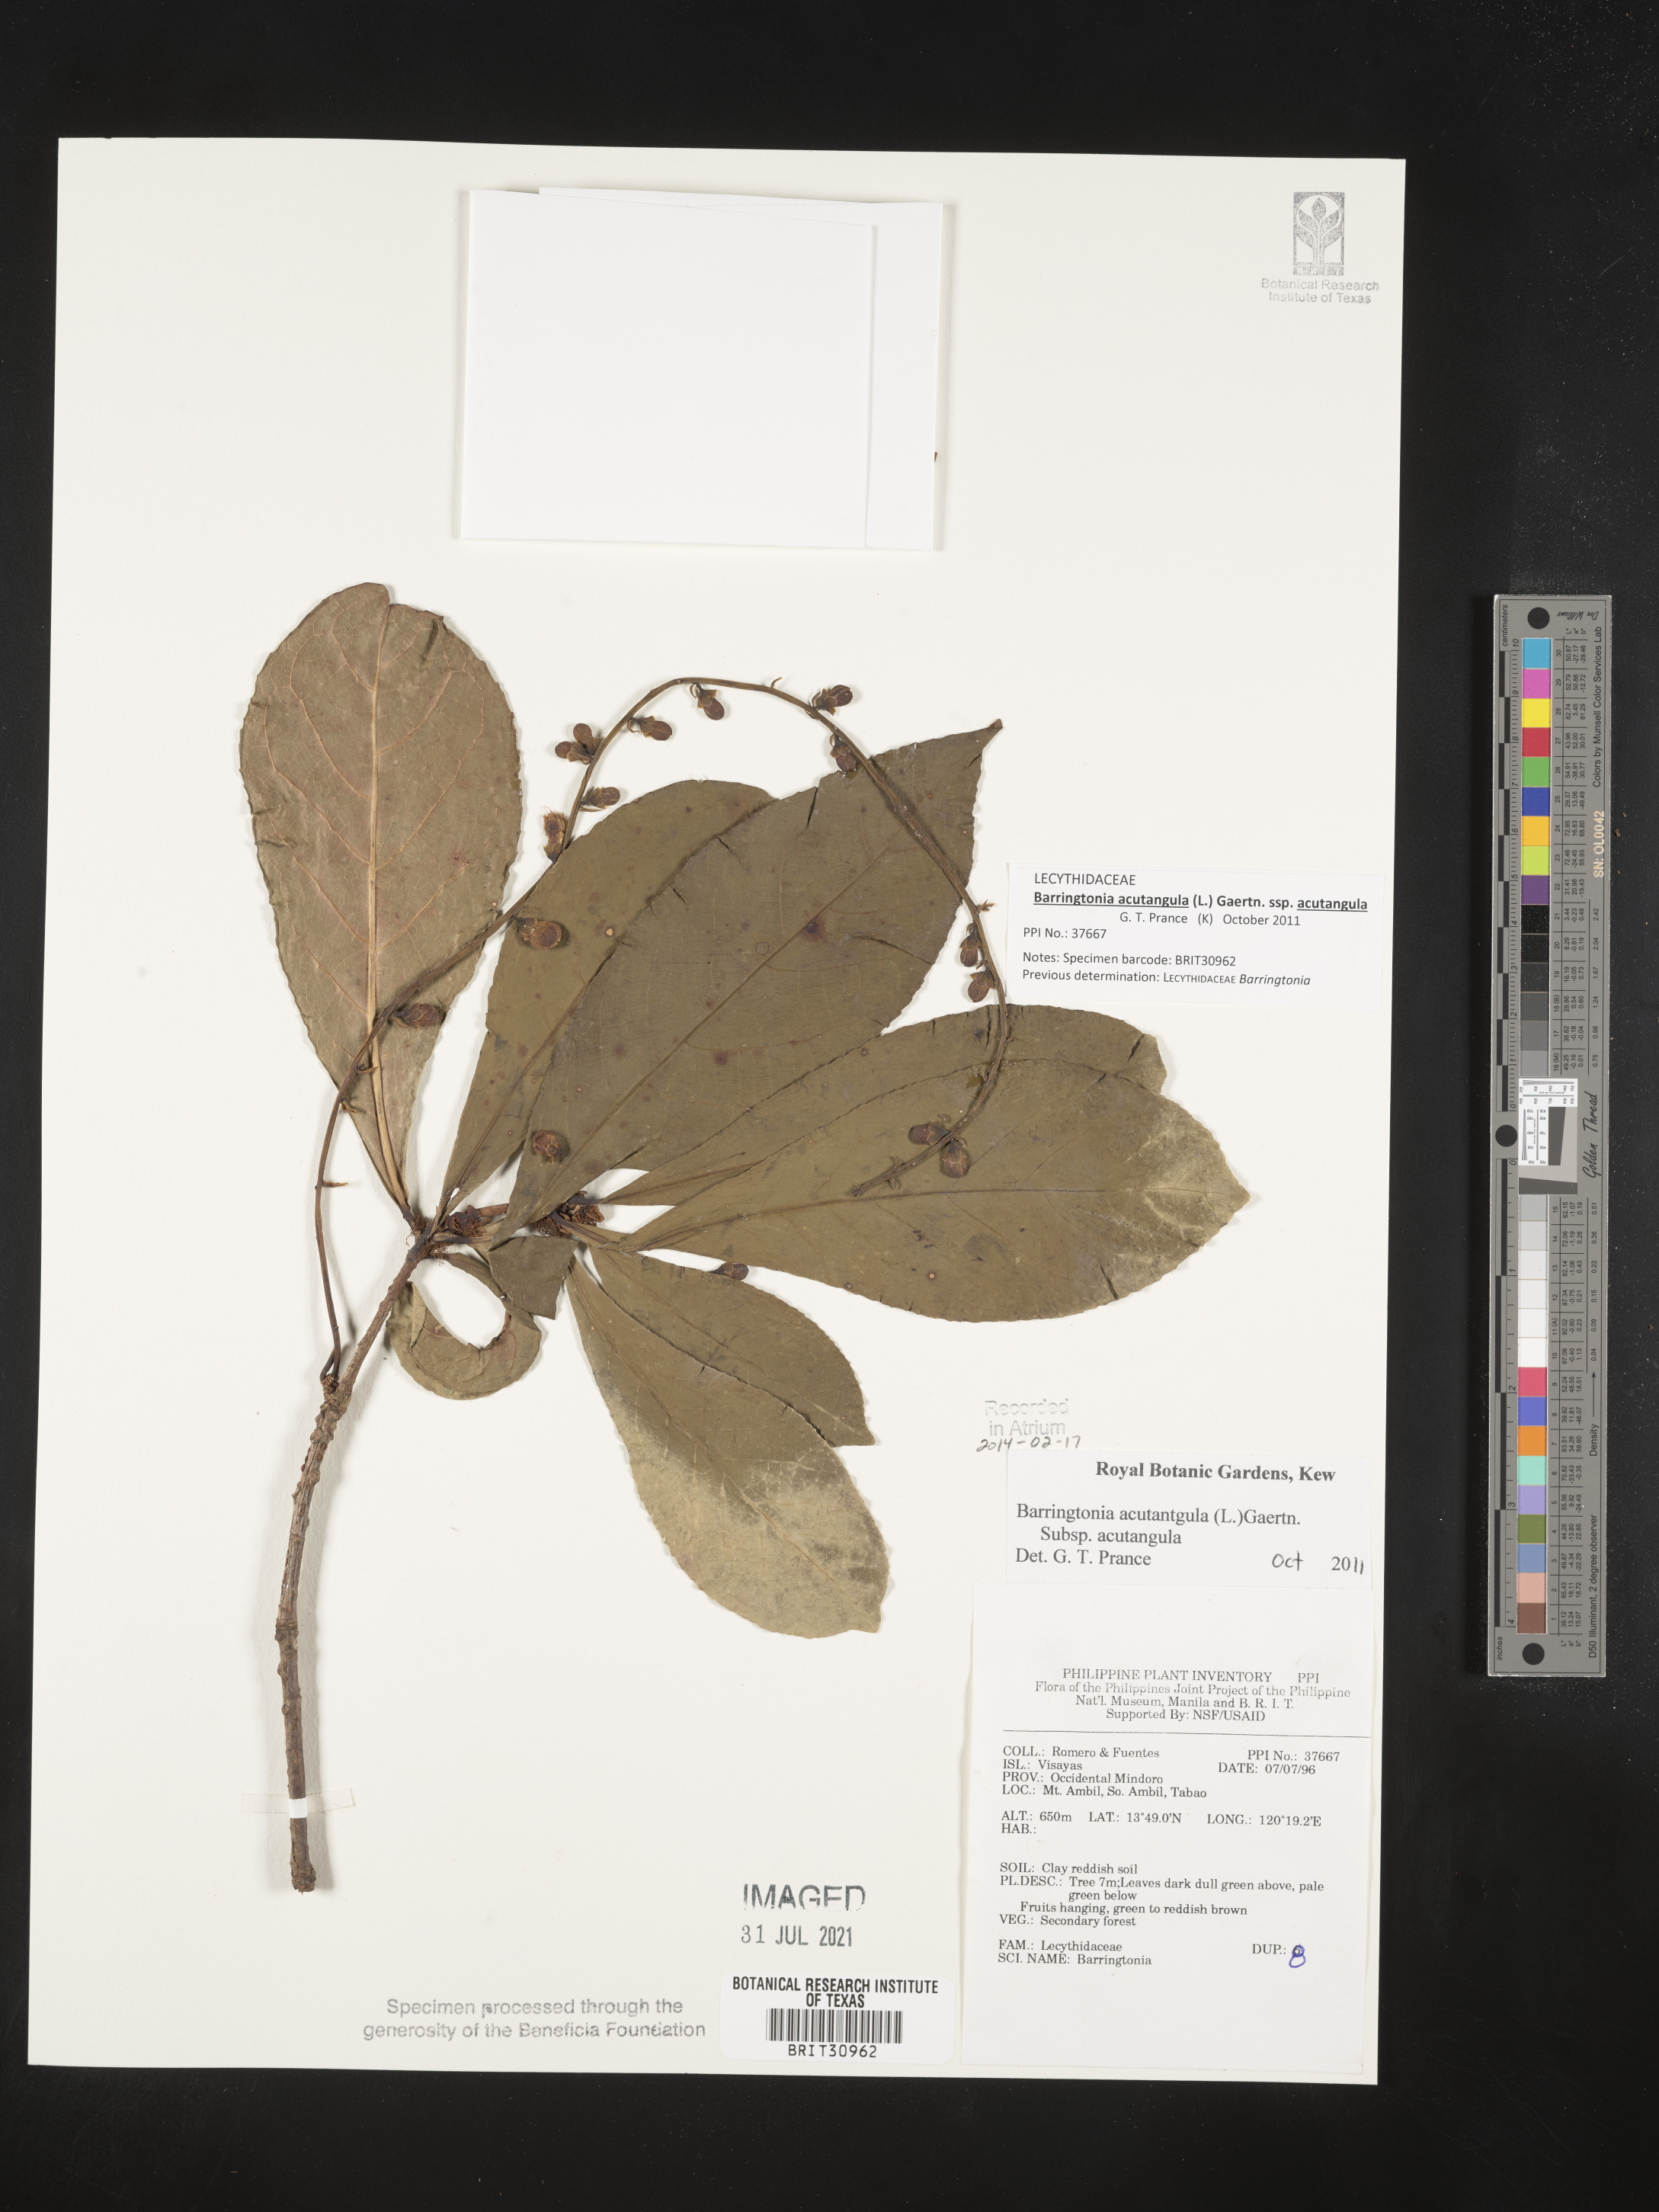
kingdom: Plantae
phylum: Tracheophyta
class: Magnoliopsida
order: Ericales
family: Lecythidaceae
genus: Barringtonia
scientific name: Barringtonia
